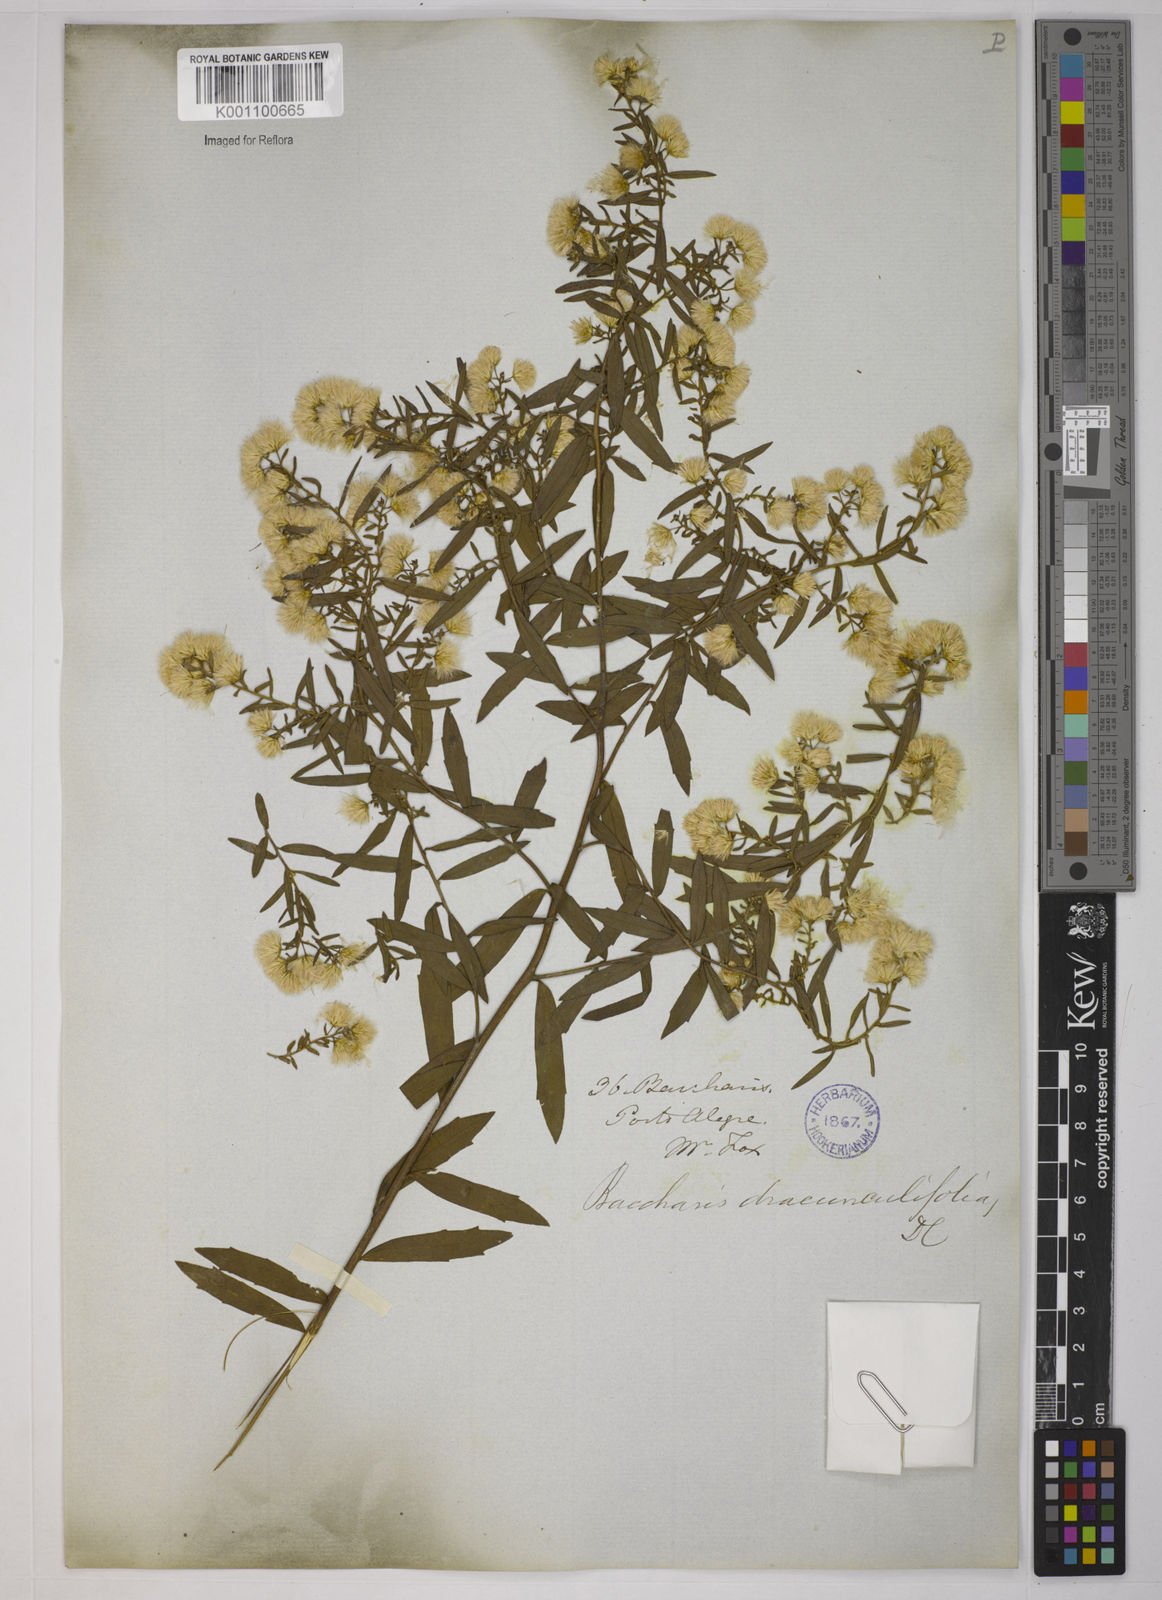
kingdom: Plantae
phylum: Tracheophyta
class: Magnoliopsida
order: Asterales
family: Asteraceae
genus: Baccharis
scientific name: Baccharis dracunculifolia
